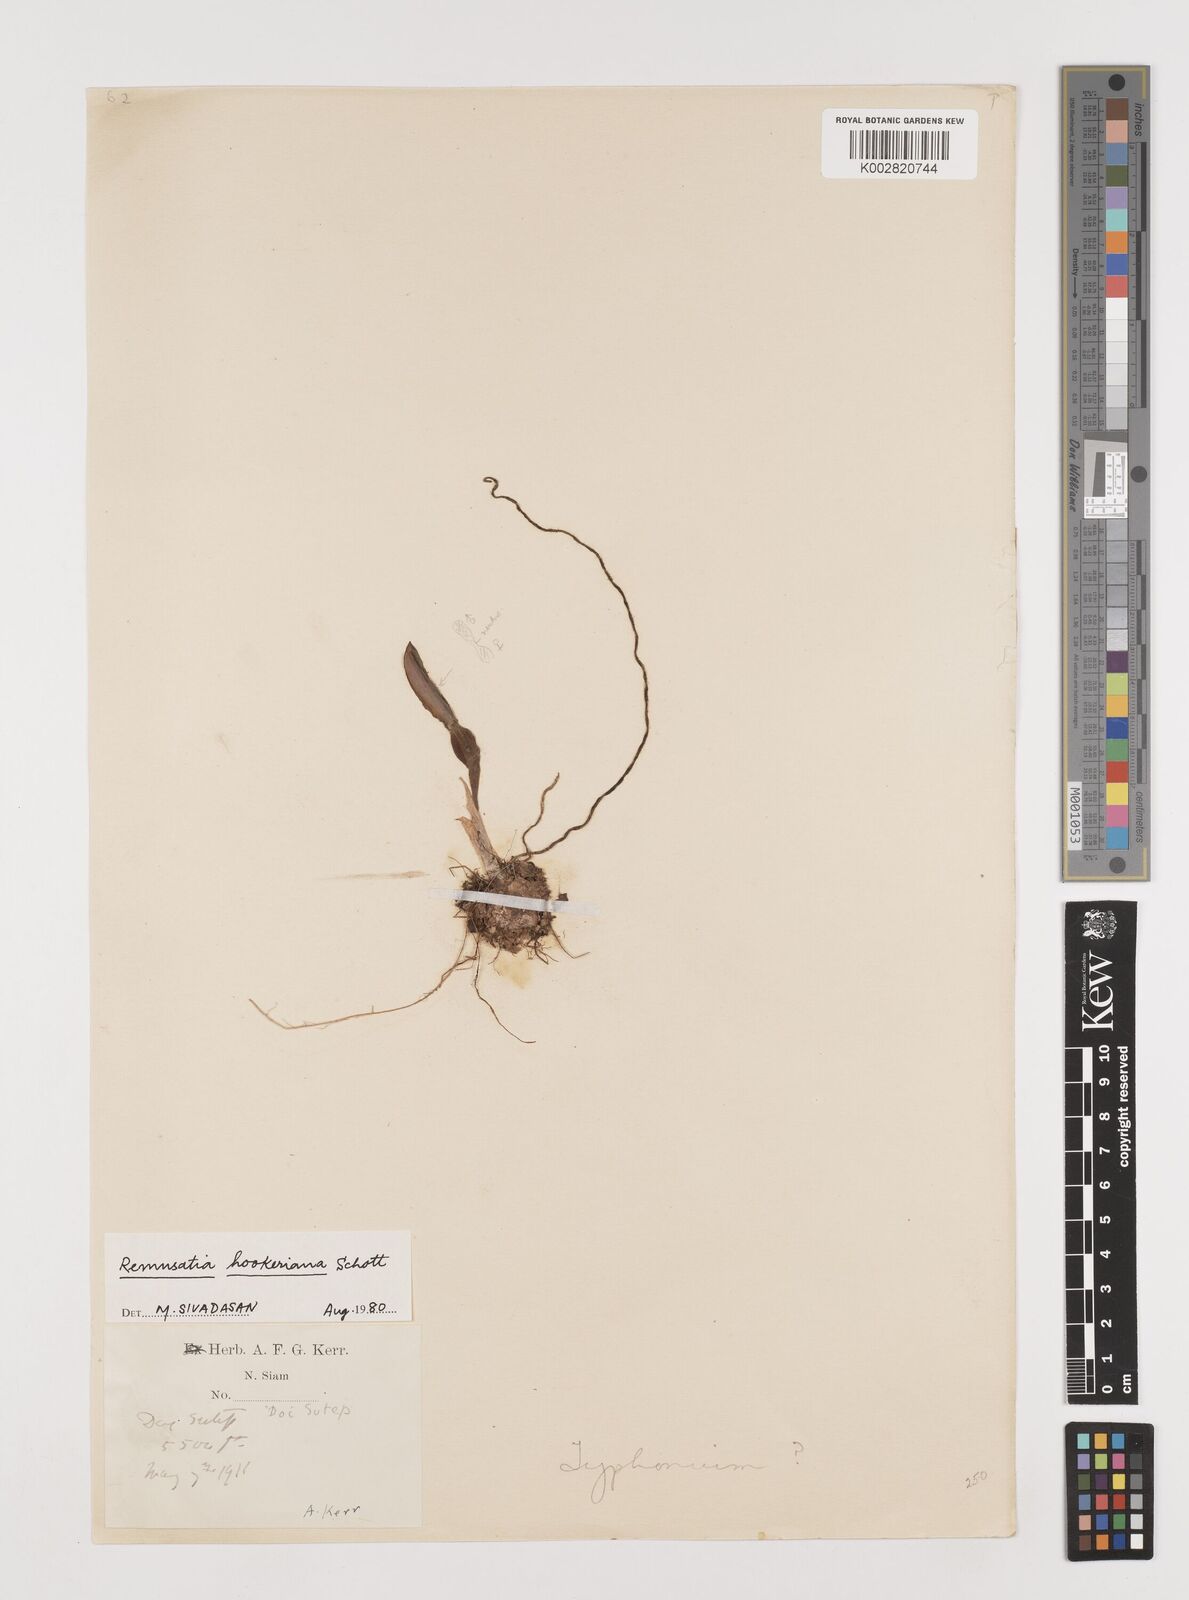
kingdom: Plantae
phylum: Tracheophyta
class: Liliopsida
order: Alismatales
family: Araceae
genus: Remusatia
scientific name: Remusatia hookeriana
